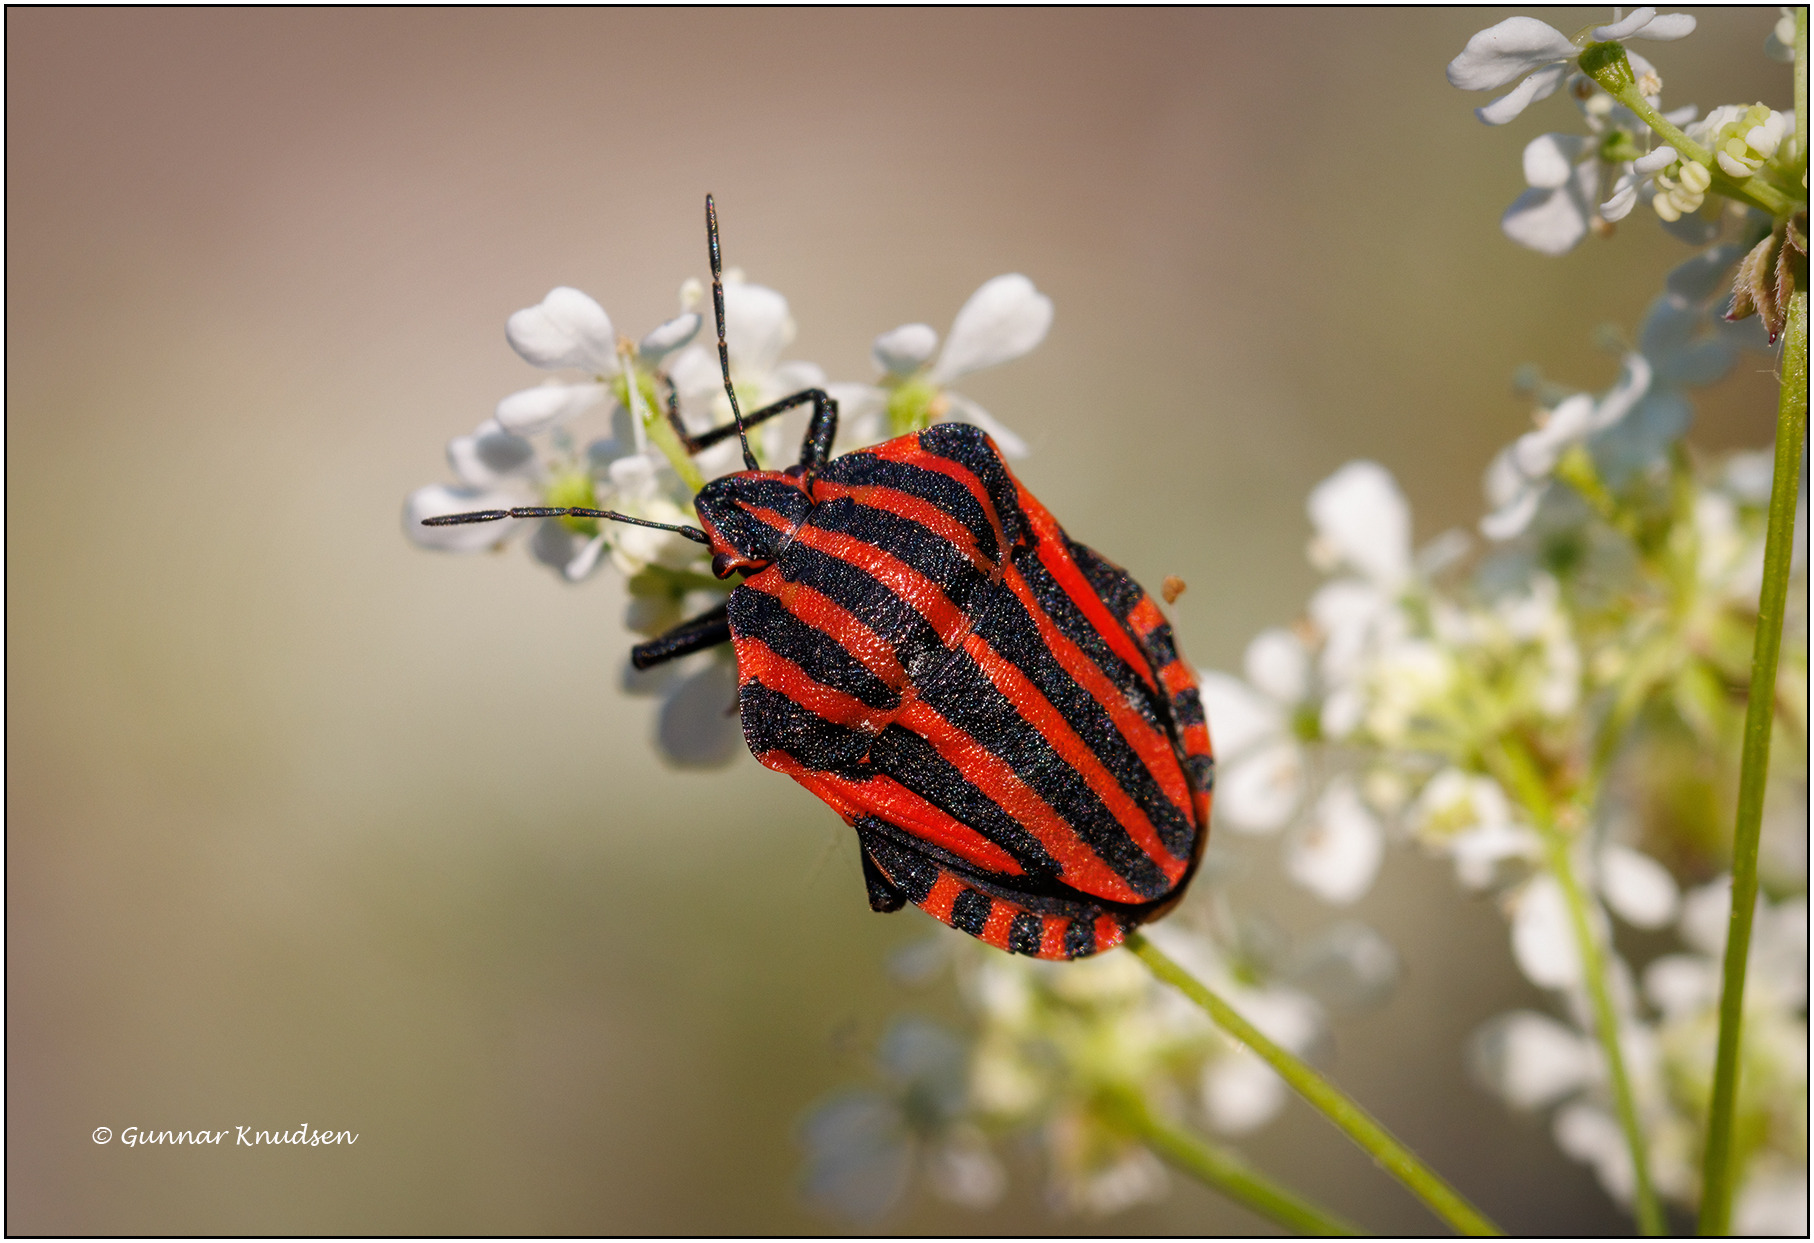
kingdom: Animalia
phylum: Arthropoda
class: Insecta
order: Hemiptera
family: Pentatomidae
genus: Graphosoma
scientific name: Graphosoma italicum
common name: Stribetæge
